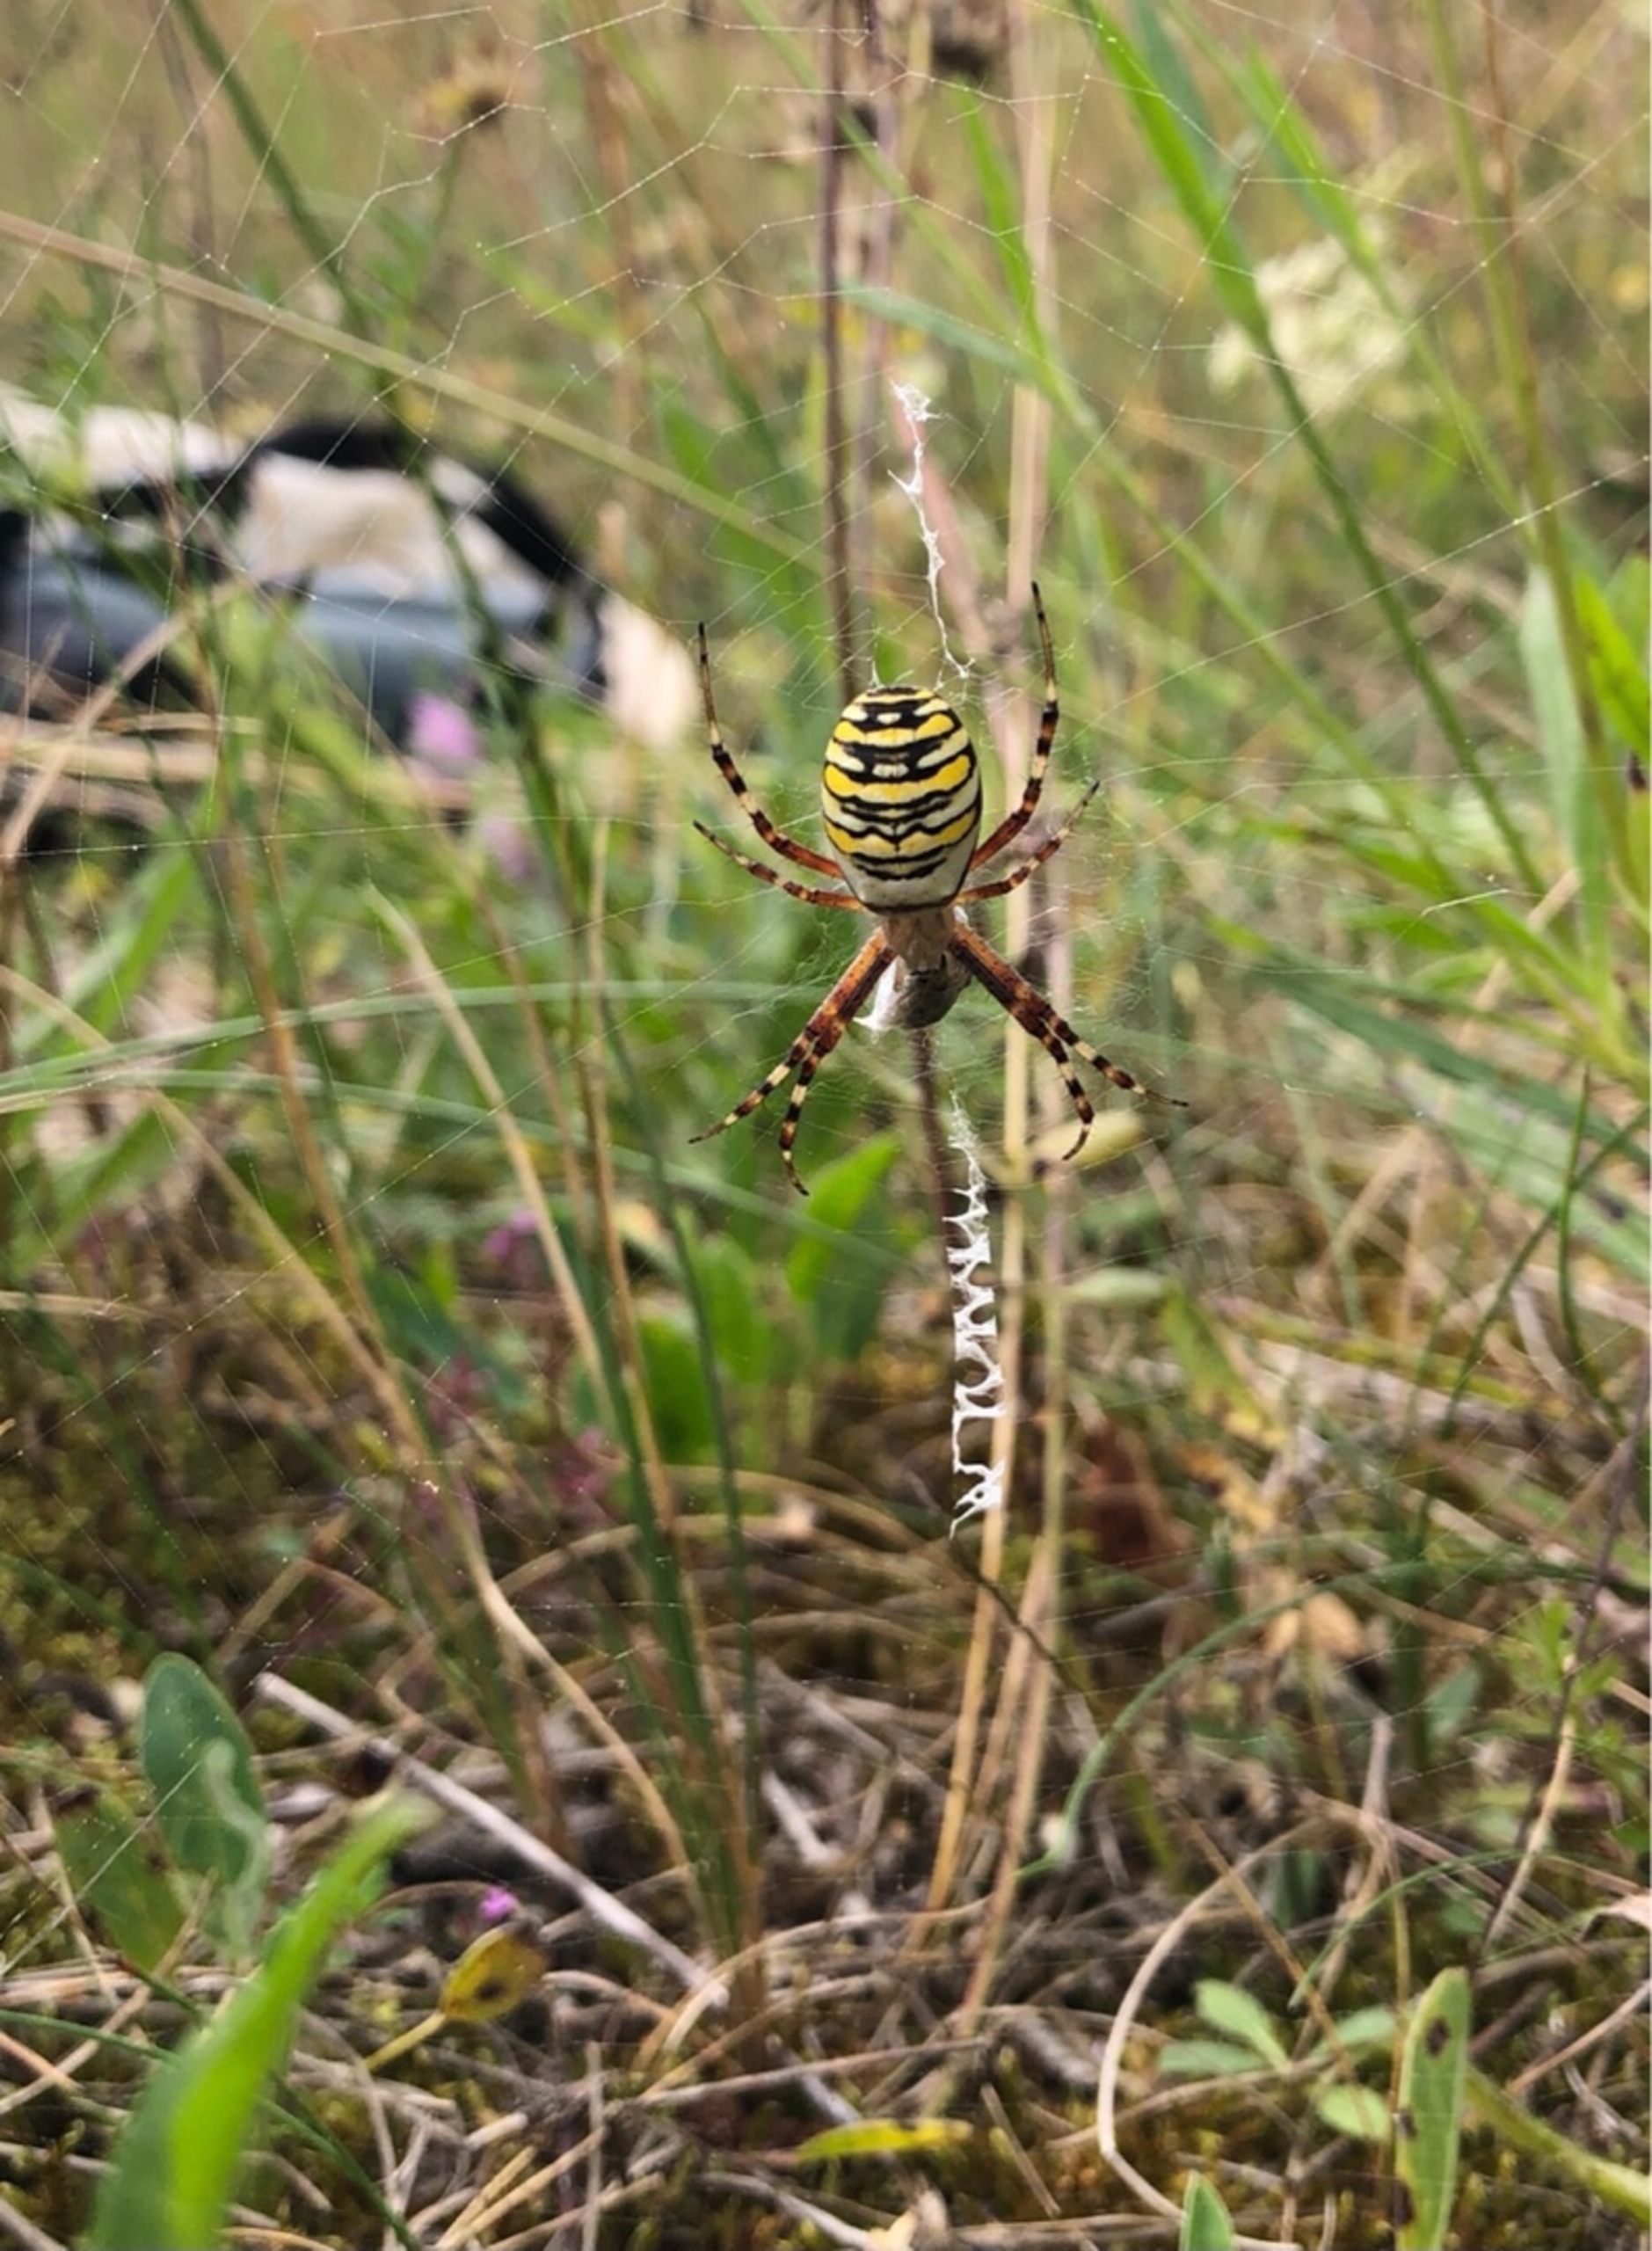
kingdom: Animalia
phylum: Arthropoda
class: Arachnida
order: Araneae
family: Araneidae
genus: Argiope
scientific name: Argiope bruennichi
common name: Hvepseedderkop
